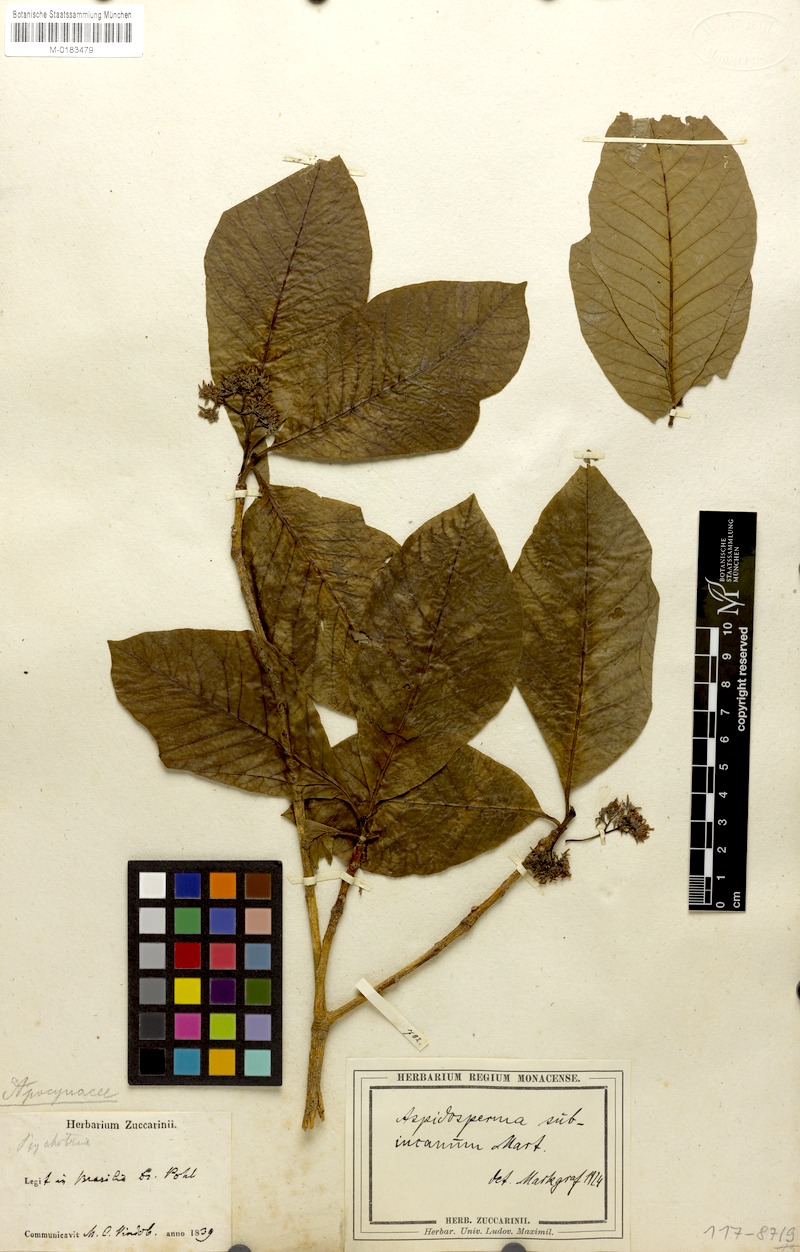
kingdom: Plantae
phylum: Tracheophyta
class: Magnoliopsida
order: Gentianales
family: Apocynaceae
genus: Aspidosperma
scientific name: Aspidosperma subincanum
